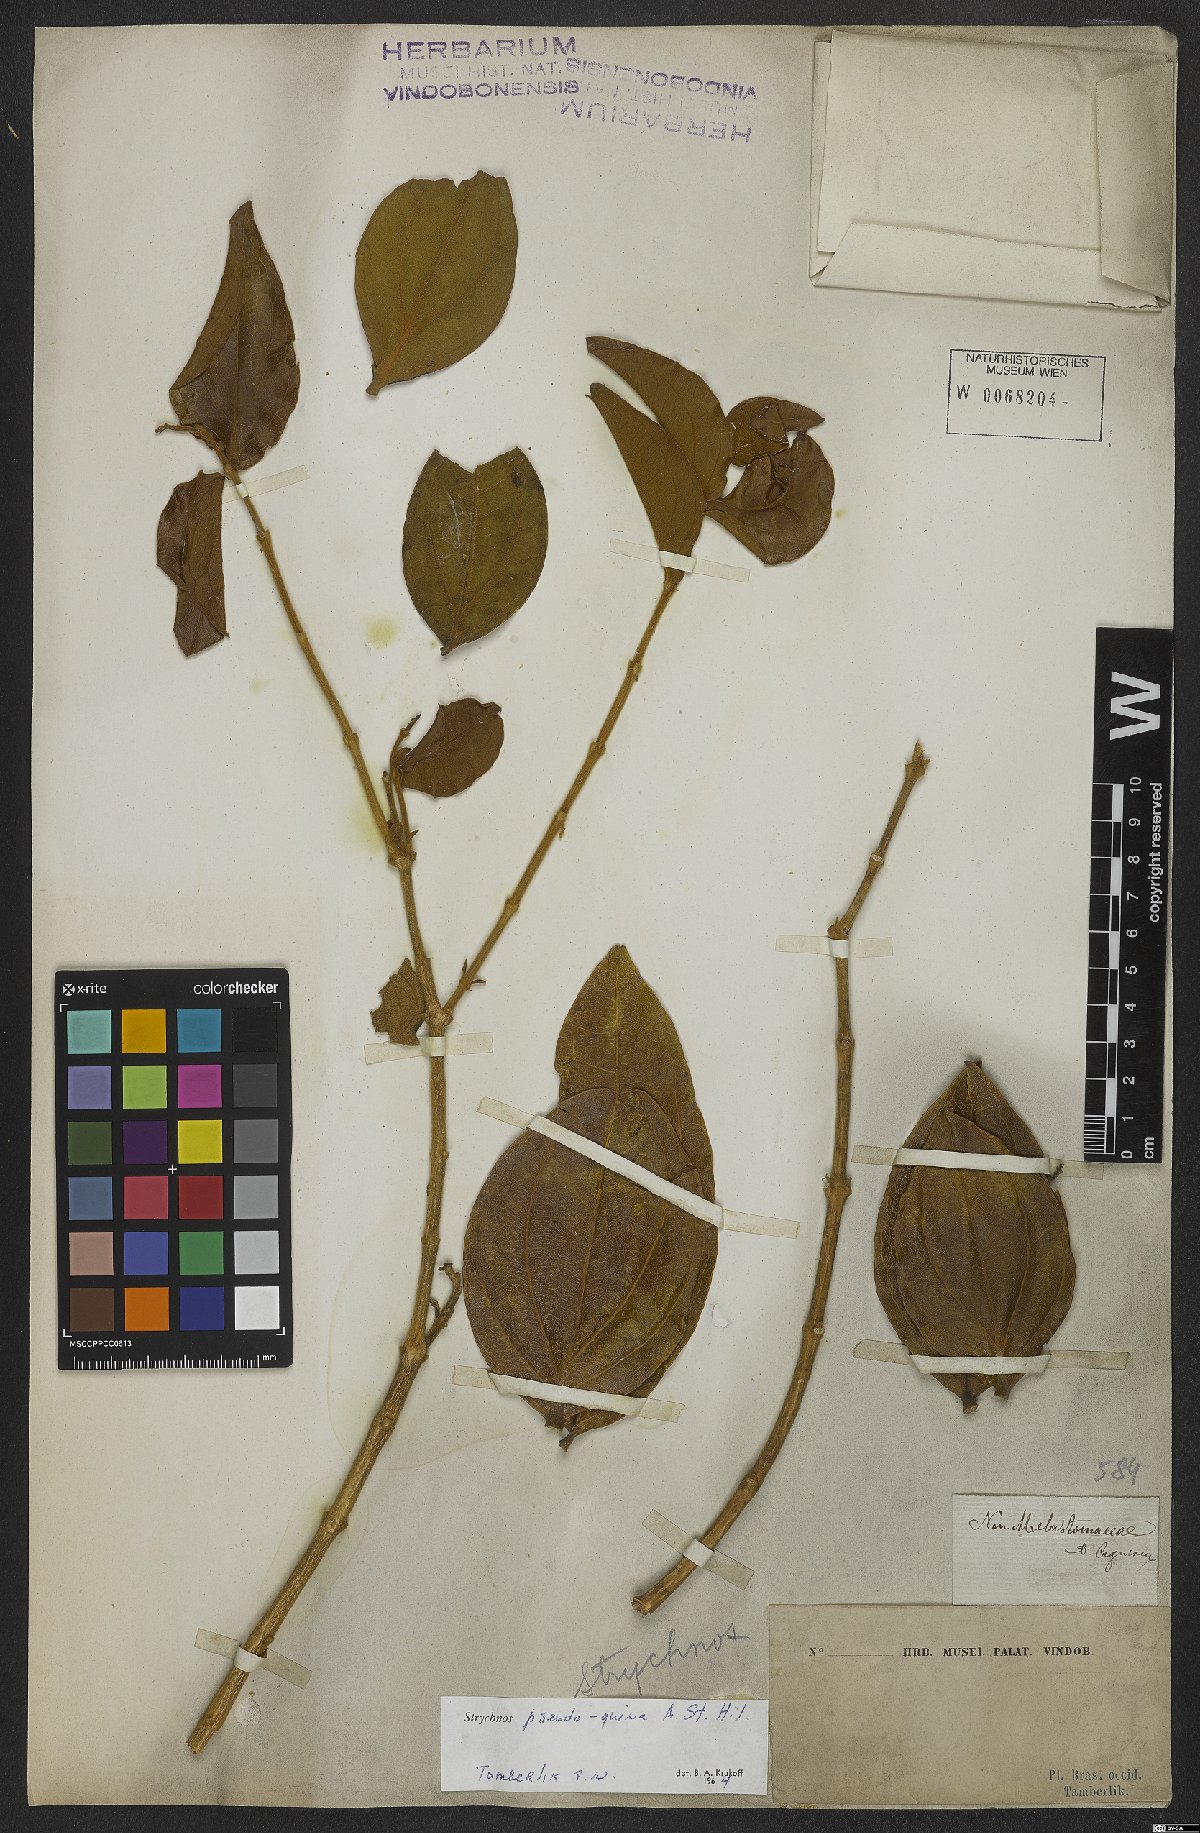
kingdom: Plantae
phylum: Tracheophyta
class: Magnoliopsida
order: Gentianales
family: Loganiaceae
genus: Strychnos
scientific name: Strychnos pseudoquina
